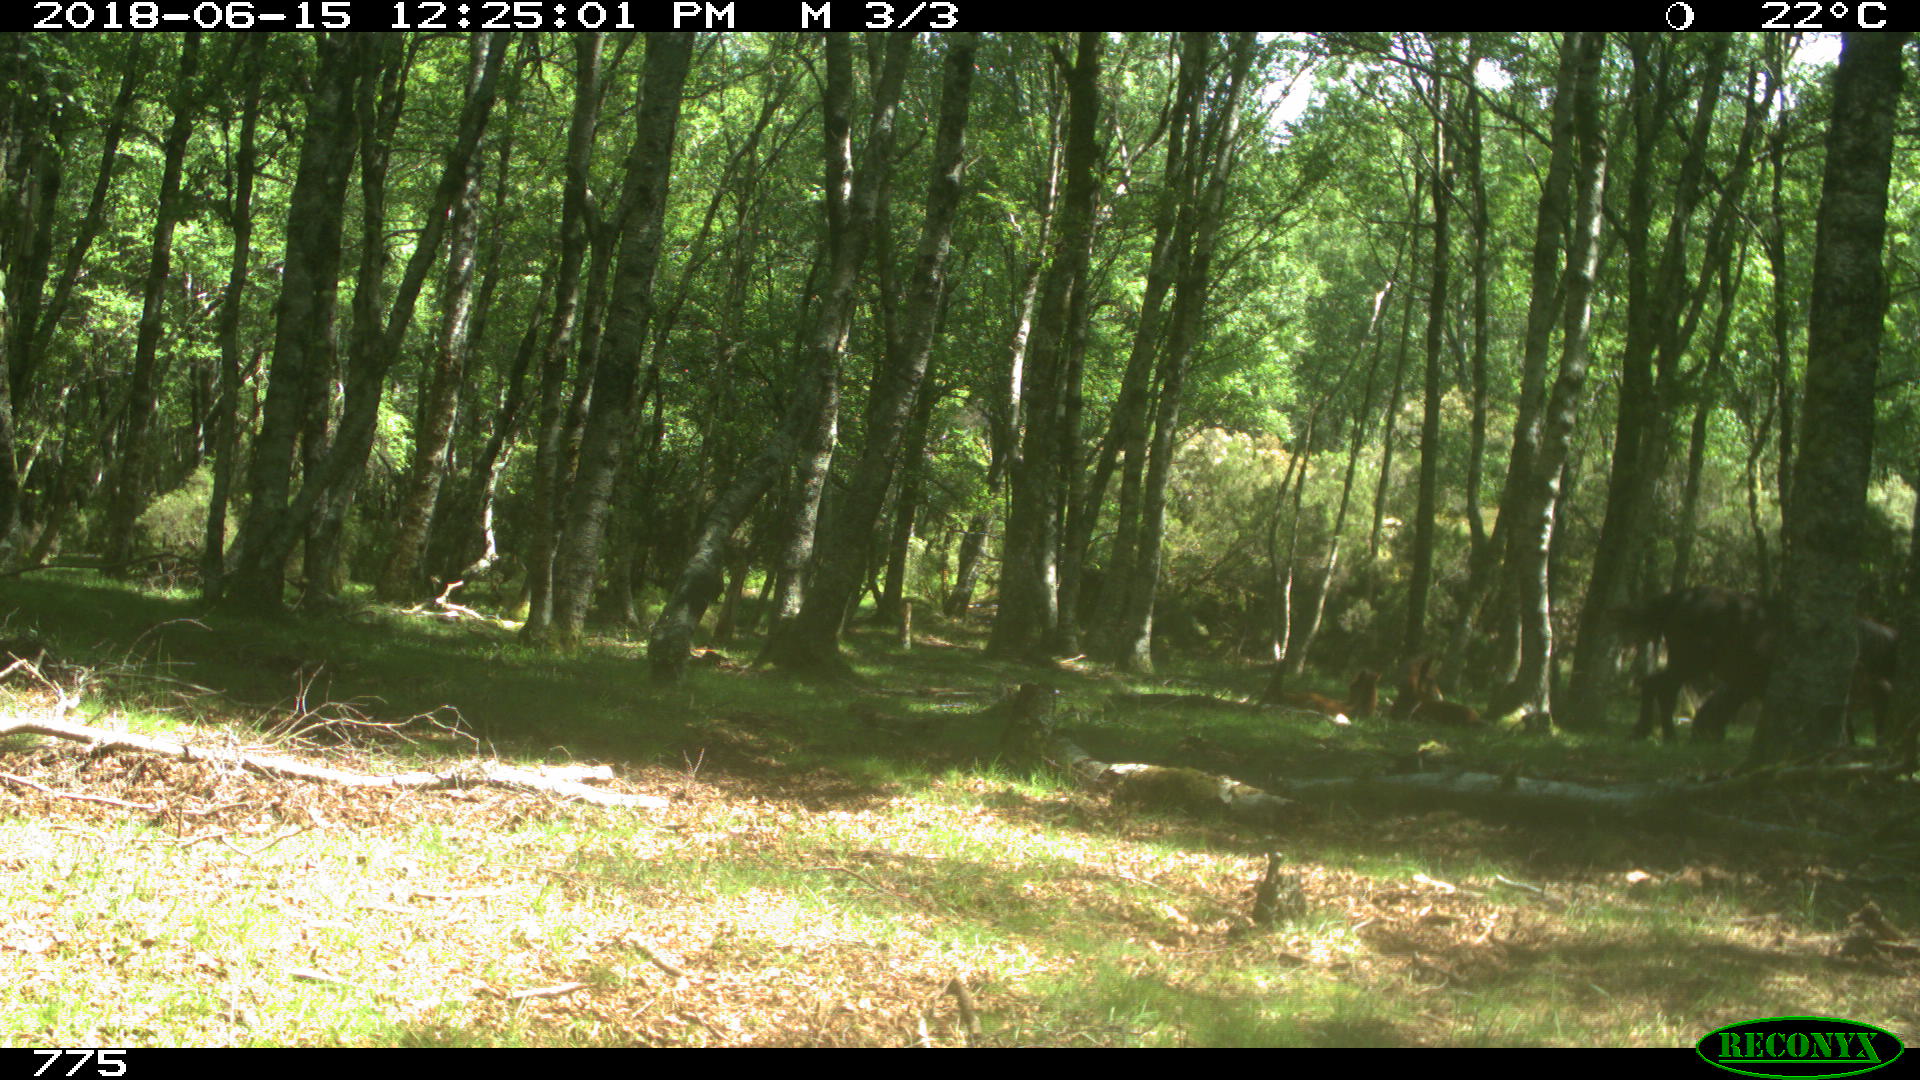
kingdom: Animalia
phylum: Chordata
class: Mammalia
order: Perissodactyla
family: Equidae
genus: Equus
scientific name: Equus caballus
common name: Horse
